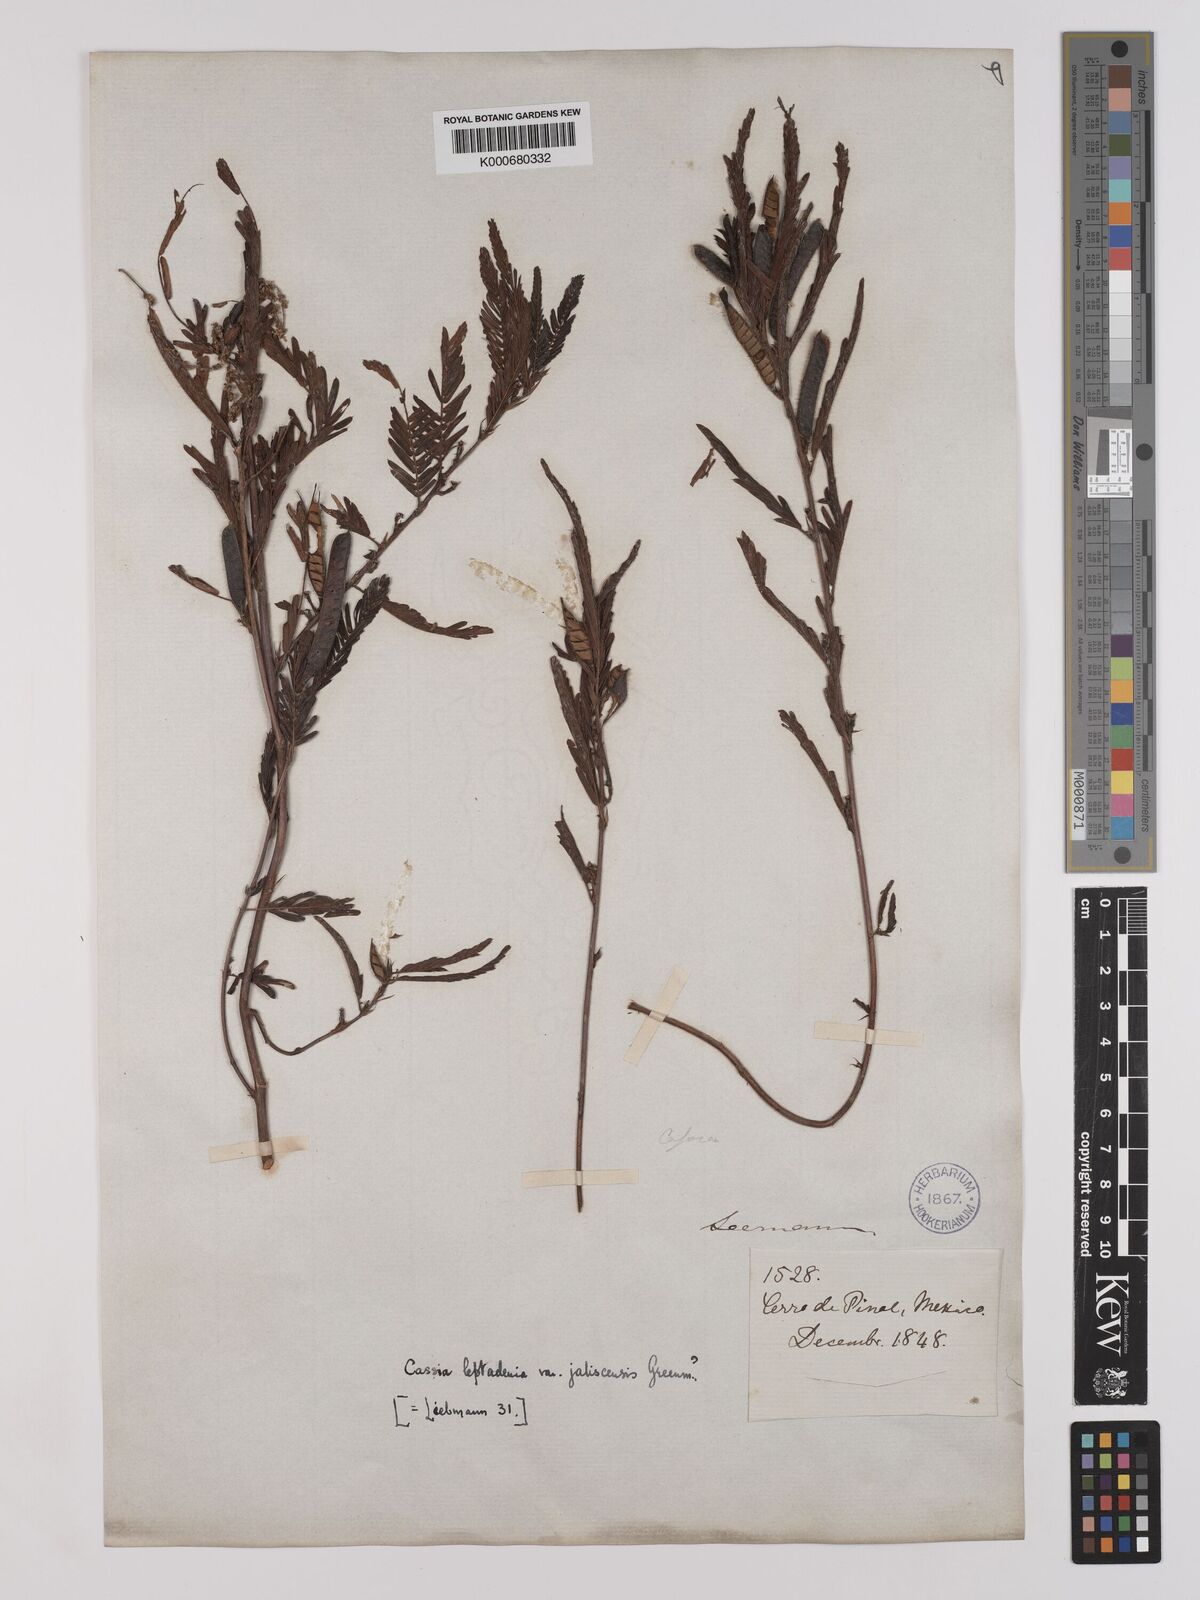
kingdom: Plantae
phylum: Tracheophyta
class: Magnoliopsida
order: Fabales
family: Fabaceae
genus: Chamaecrista
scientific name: Chamaecrista nictitans
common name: Sensitive cassia
